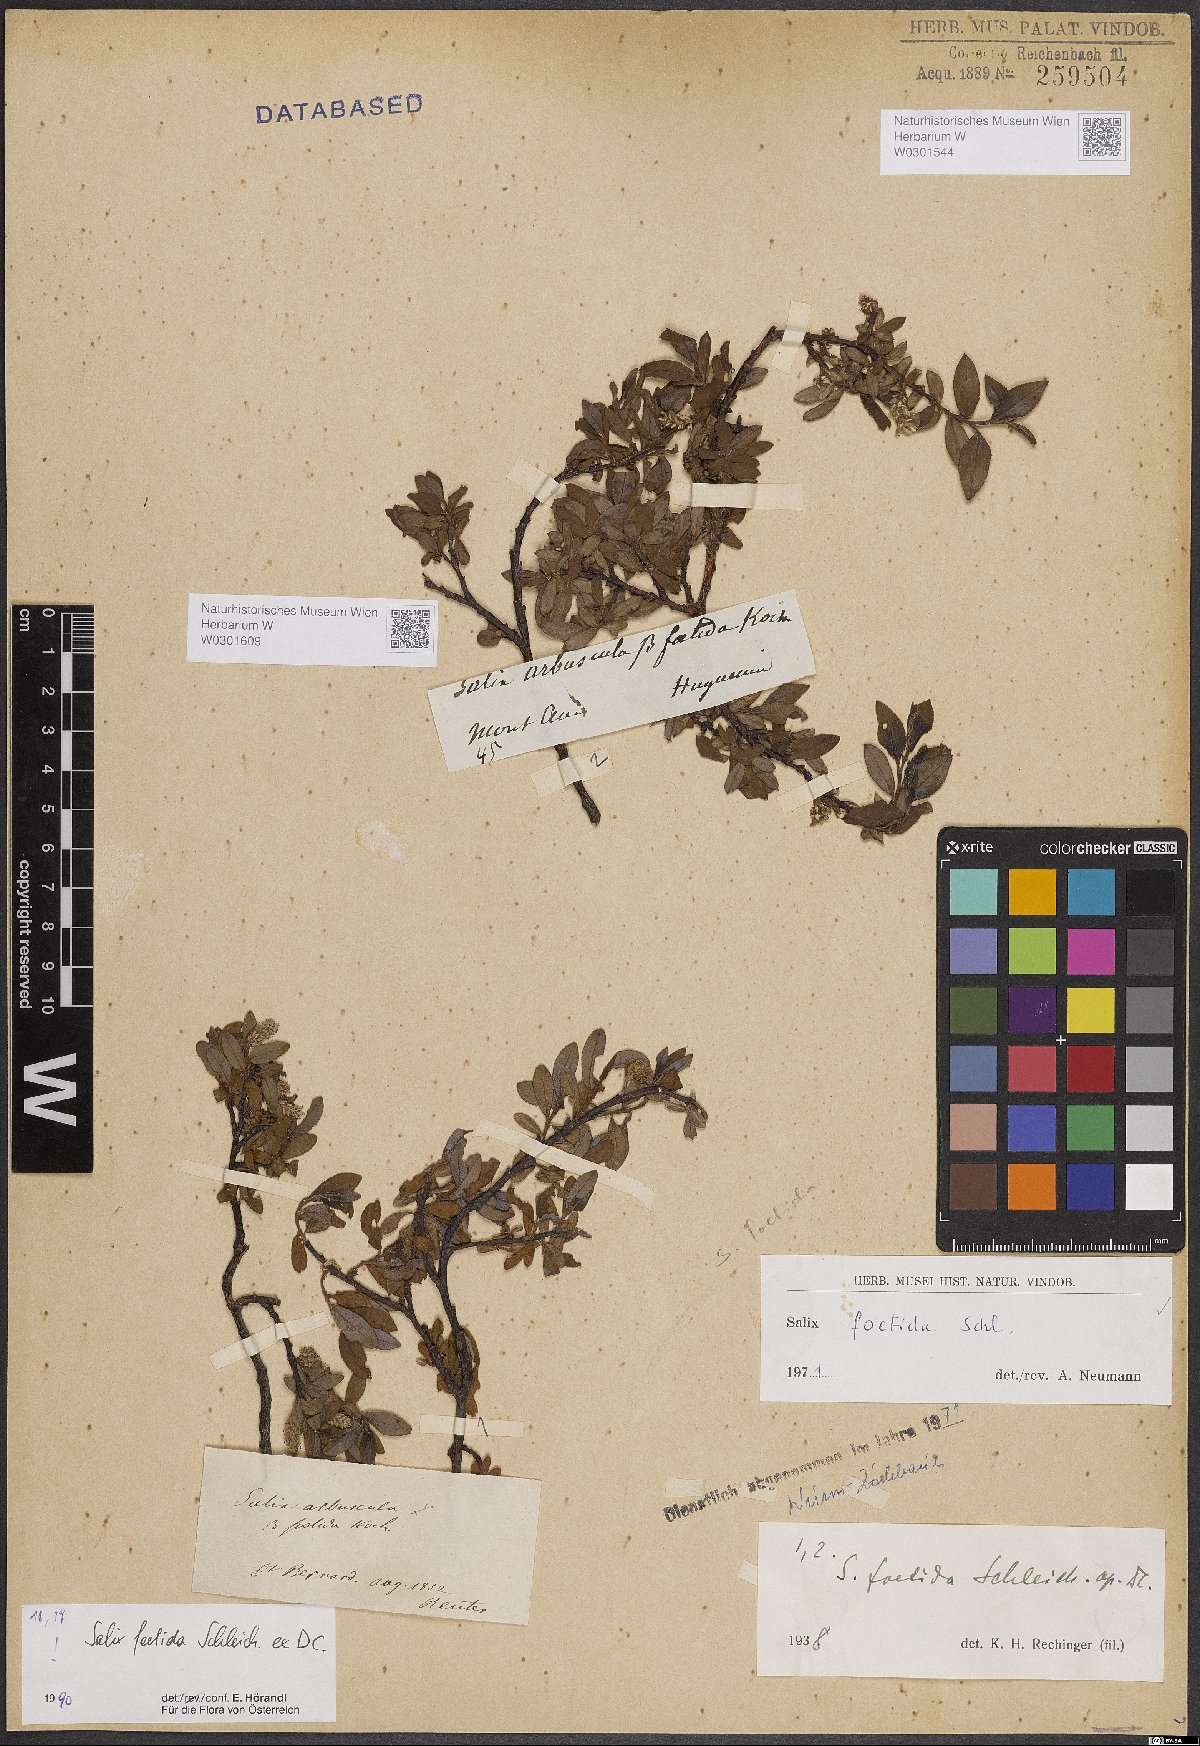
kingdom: Plantae
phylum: Tracheophyta
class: Magnoliopsida
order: Malpighiales
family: Salicaceae
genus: Salix
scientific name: Salix foetida
